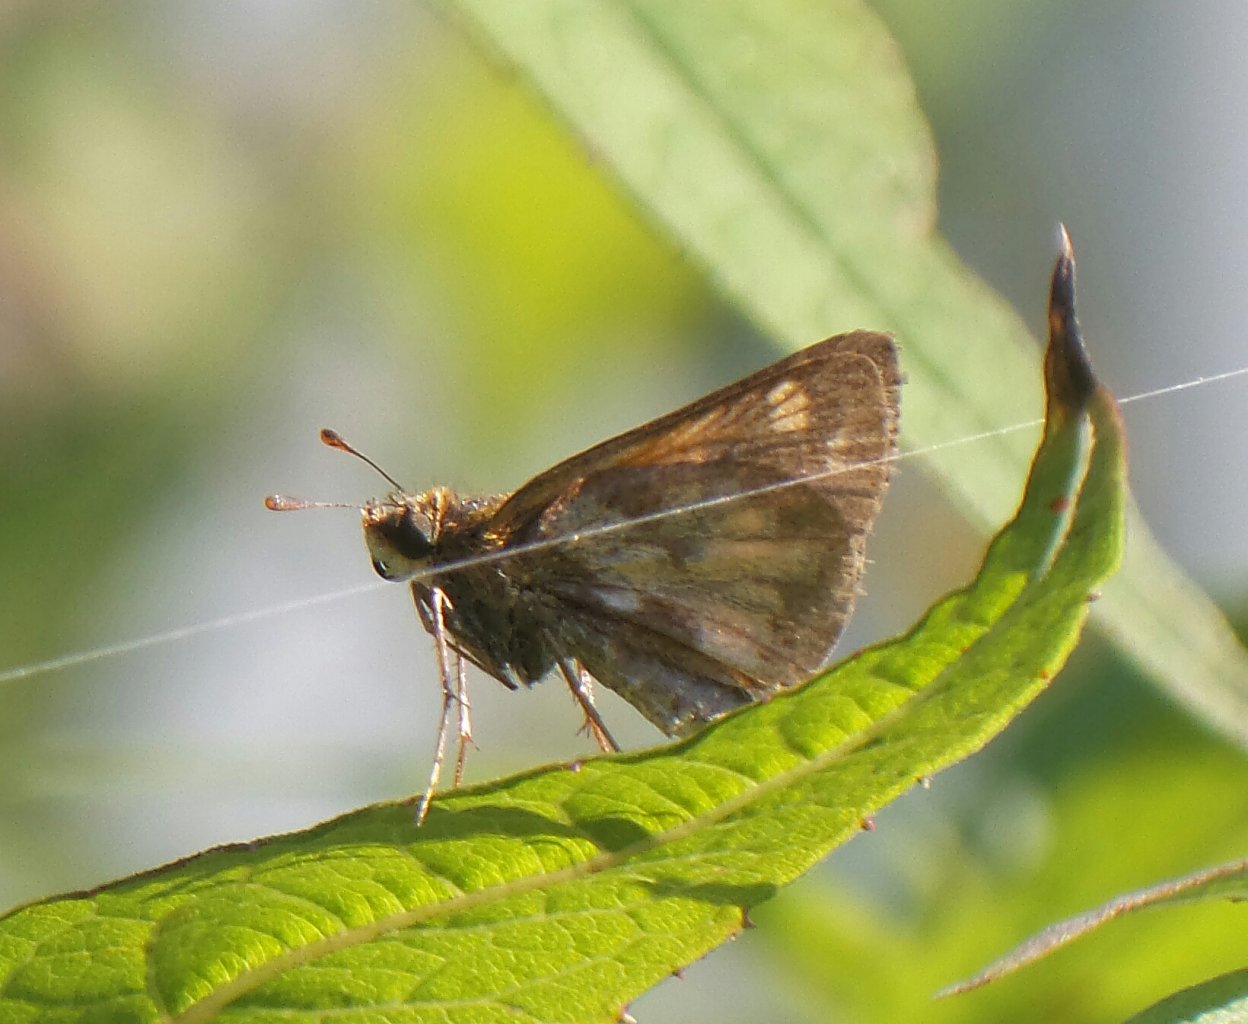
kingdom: Animalia
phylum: Arthropoda
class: Insecta
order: Lepidoptera
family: Hesperiidae
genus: Polites
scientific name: Polites coras
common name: Peck's Skipper
